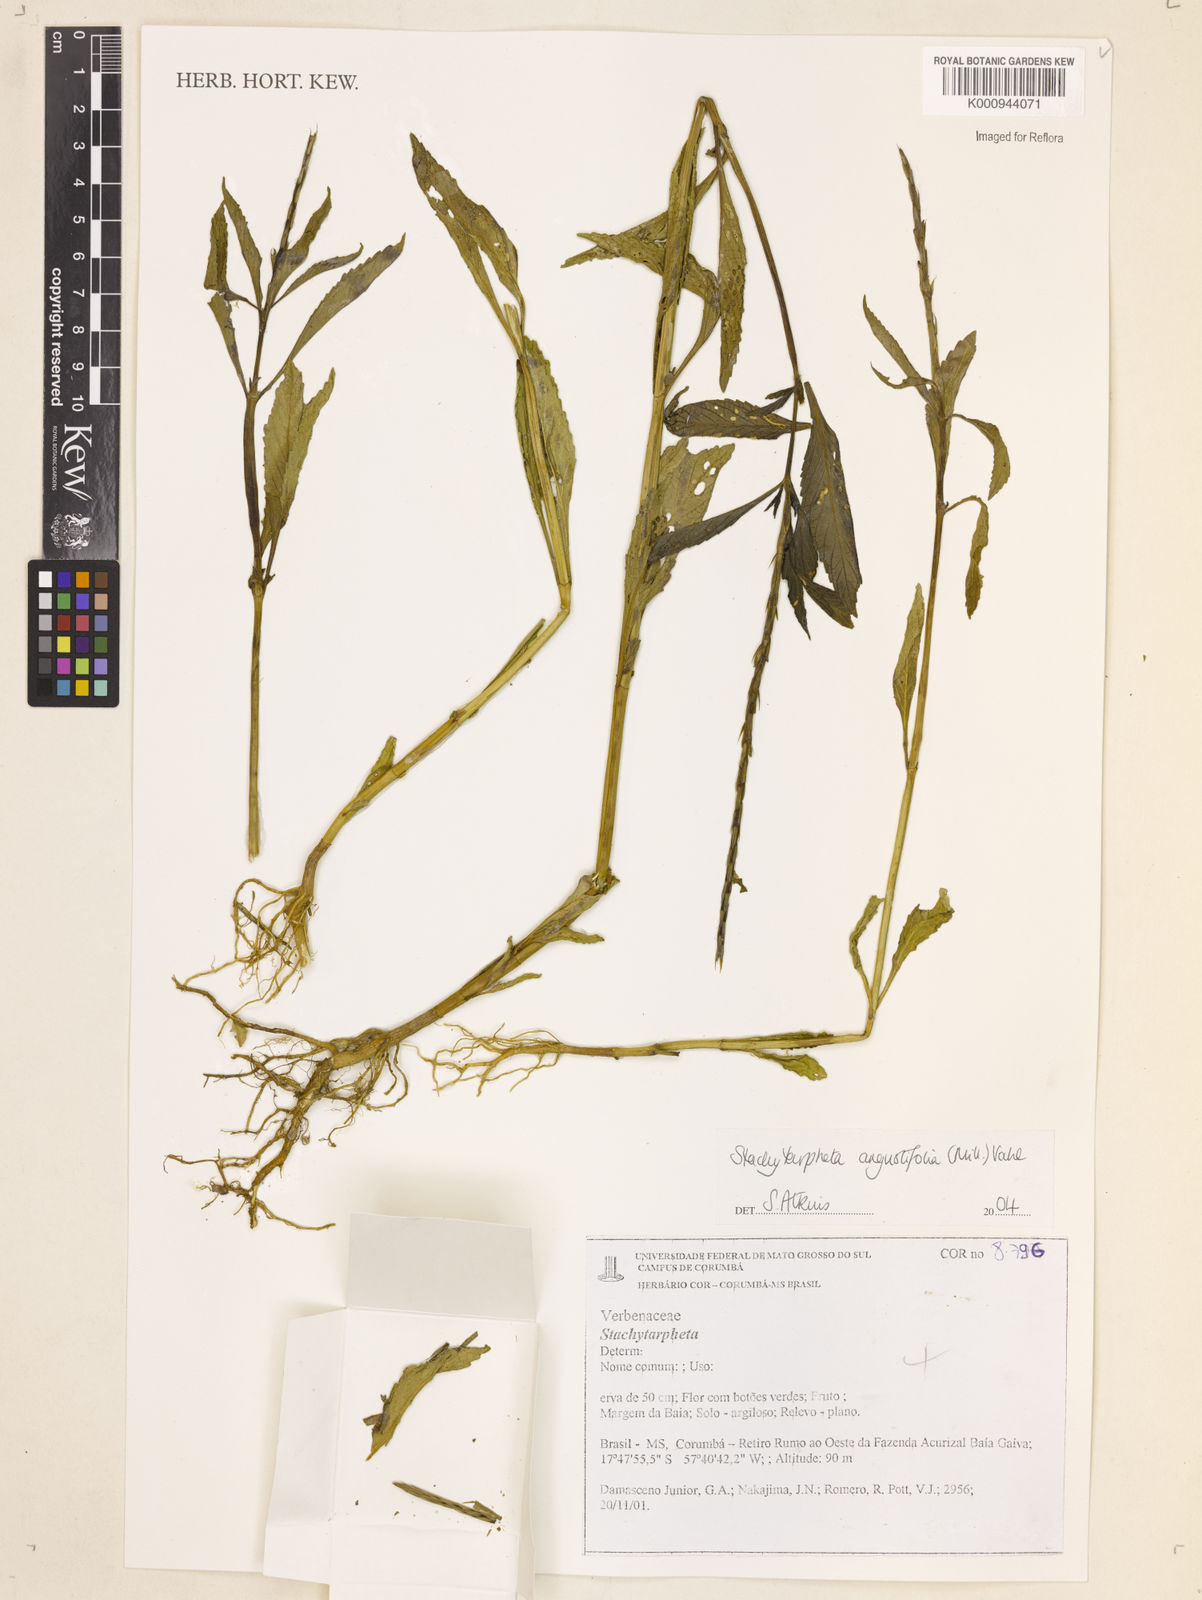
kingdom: Plantae
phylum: Tracheophyta
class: Magnoliopsida
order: Lamiales
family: Verbenaceae
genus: Stachytarpheta
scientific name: Stachytarpheta indica
